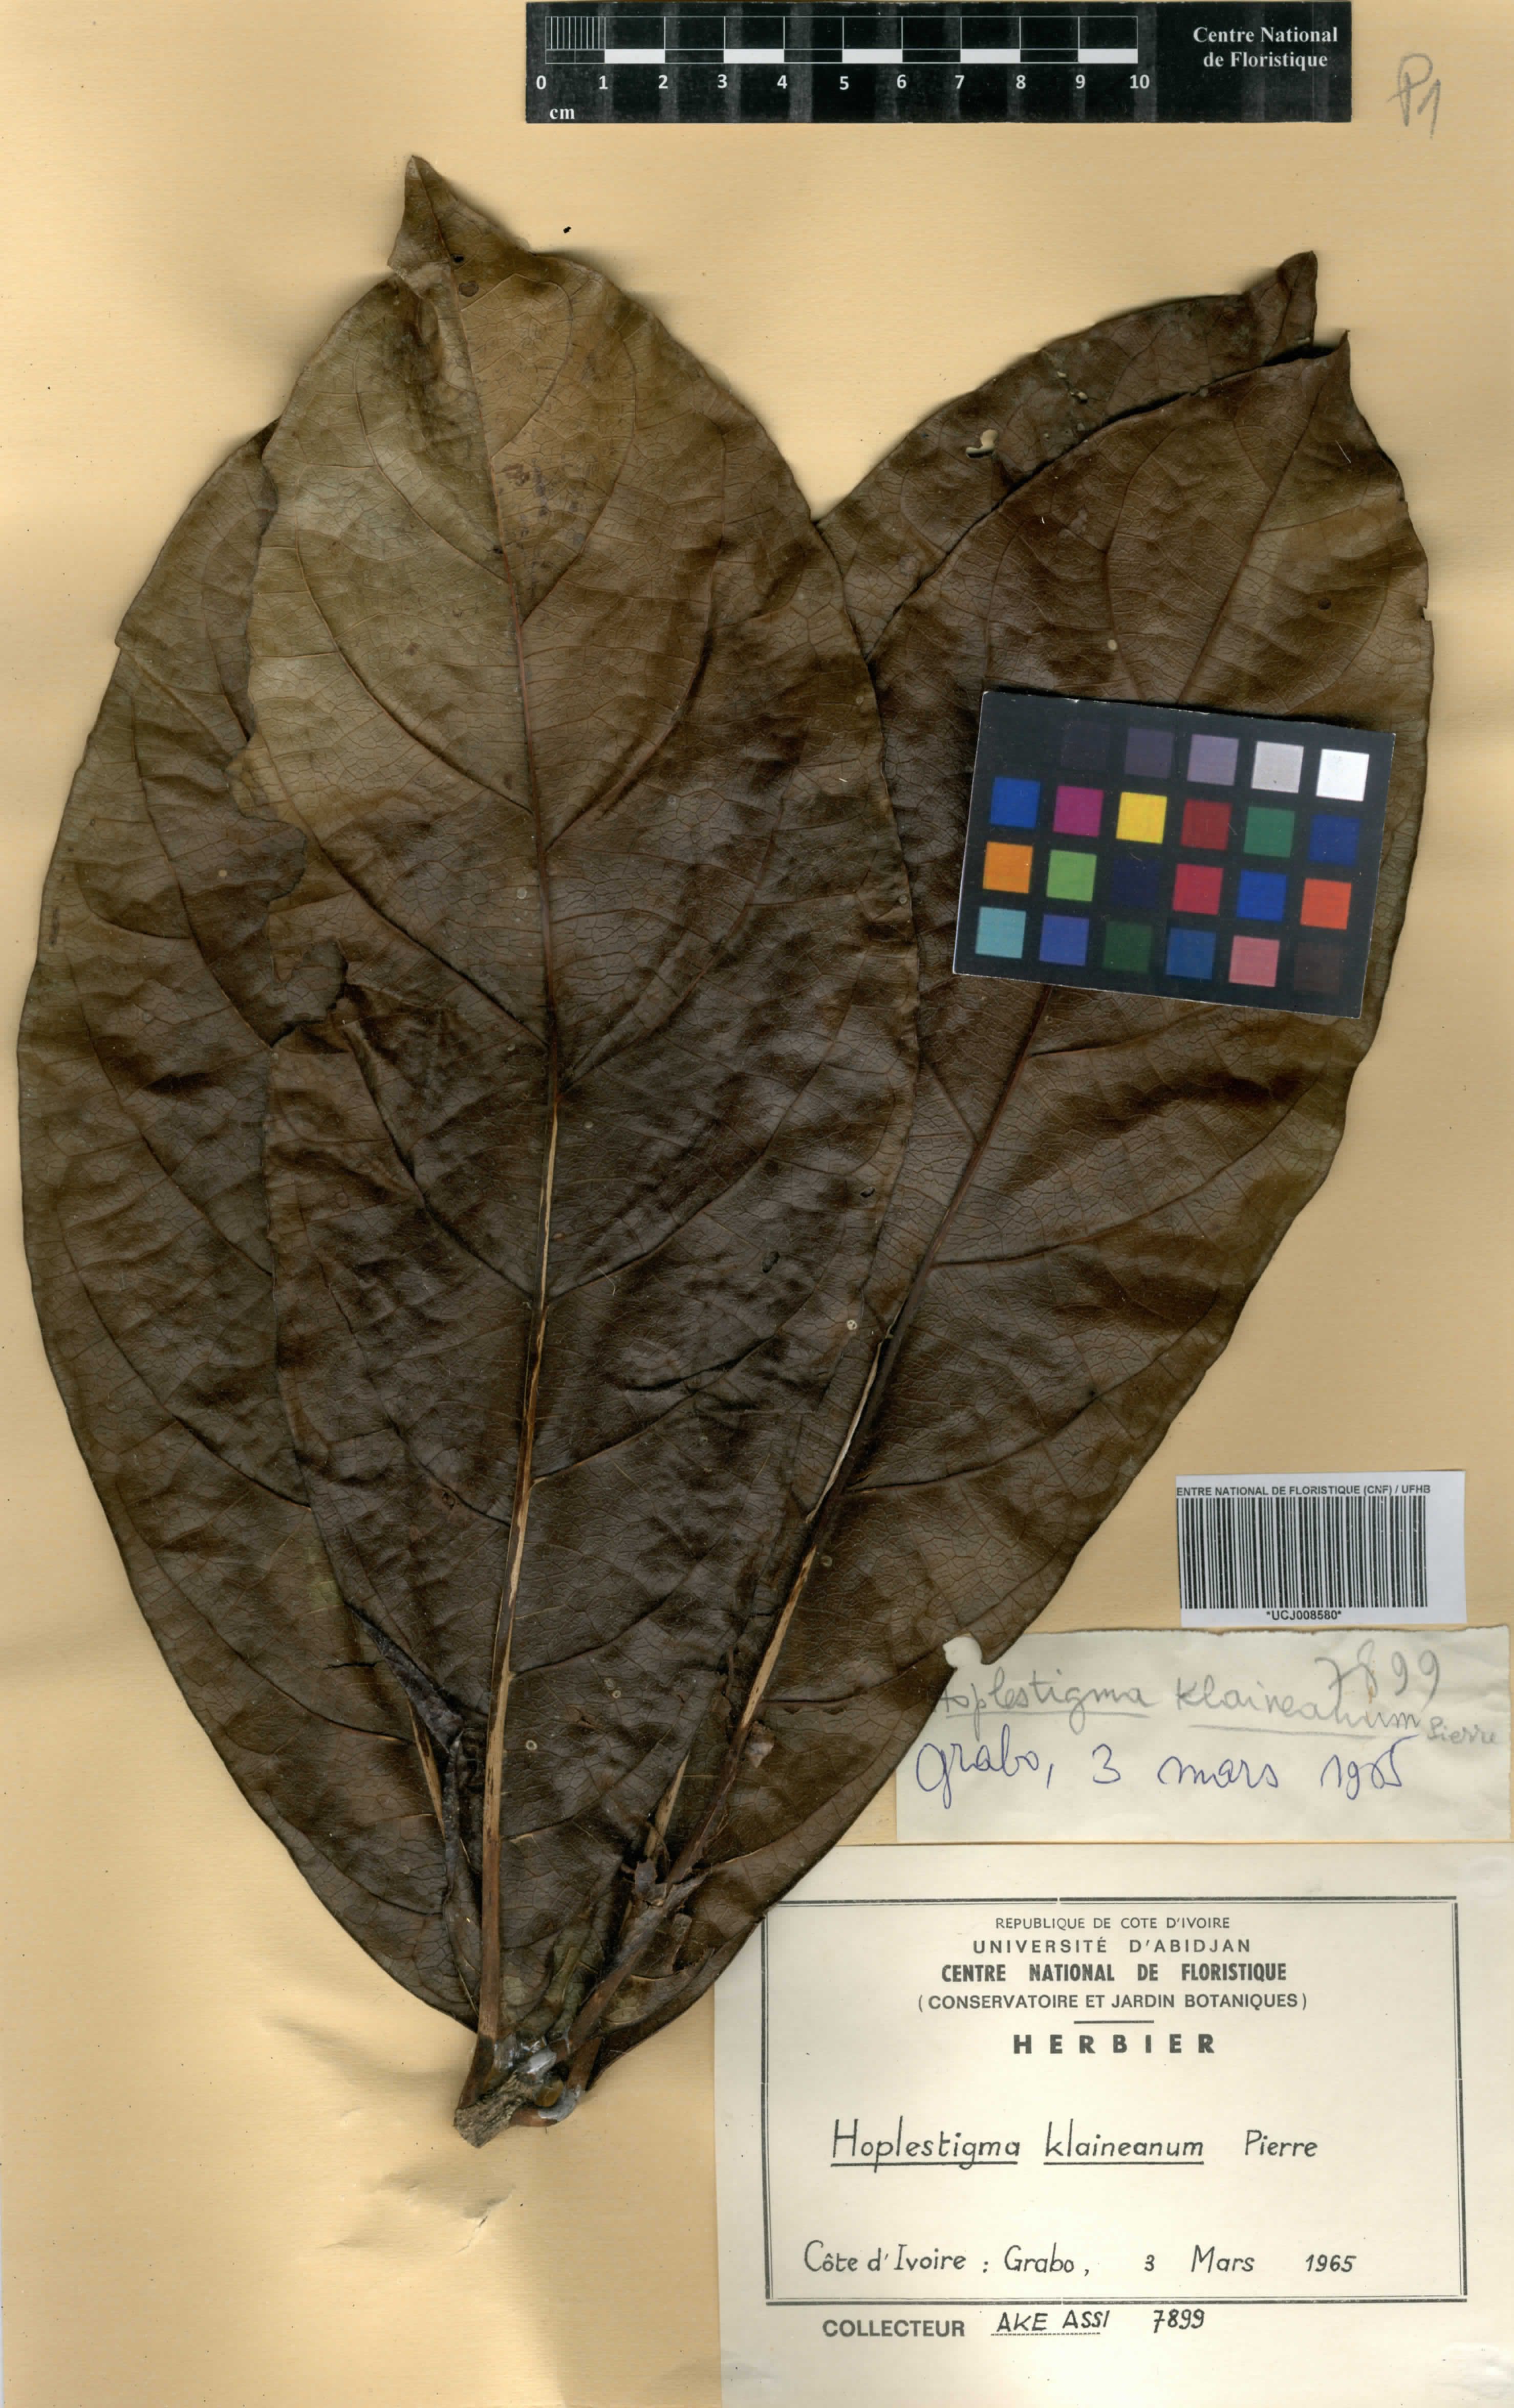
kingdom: Plantae
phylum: Tracheophyta
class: Magnoliopsida
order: Boraginales
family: Hoplestigmataceae
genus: Hoplestigma
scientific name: Hoplestigma klaineanum
